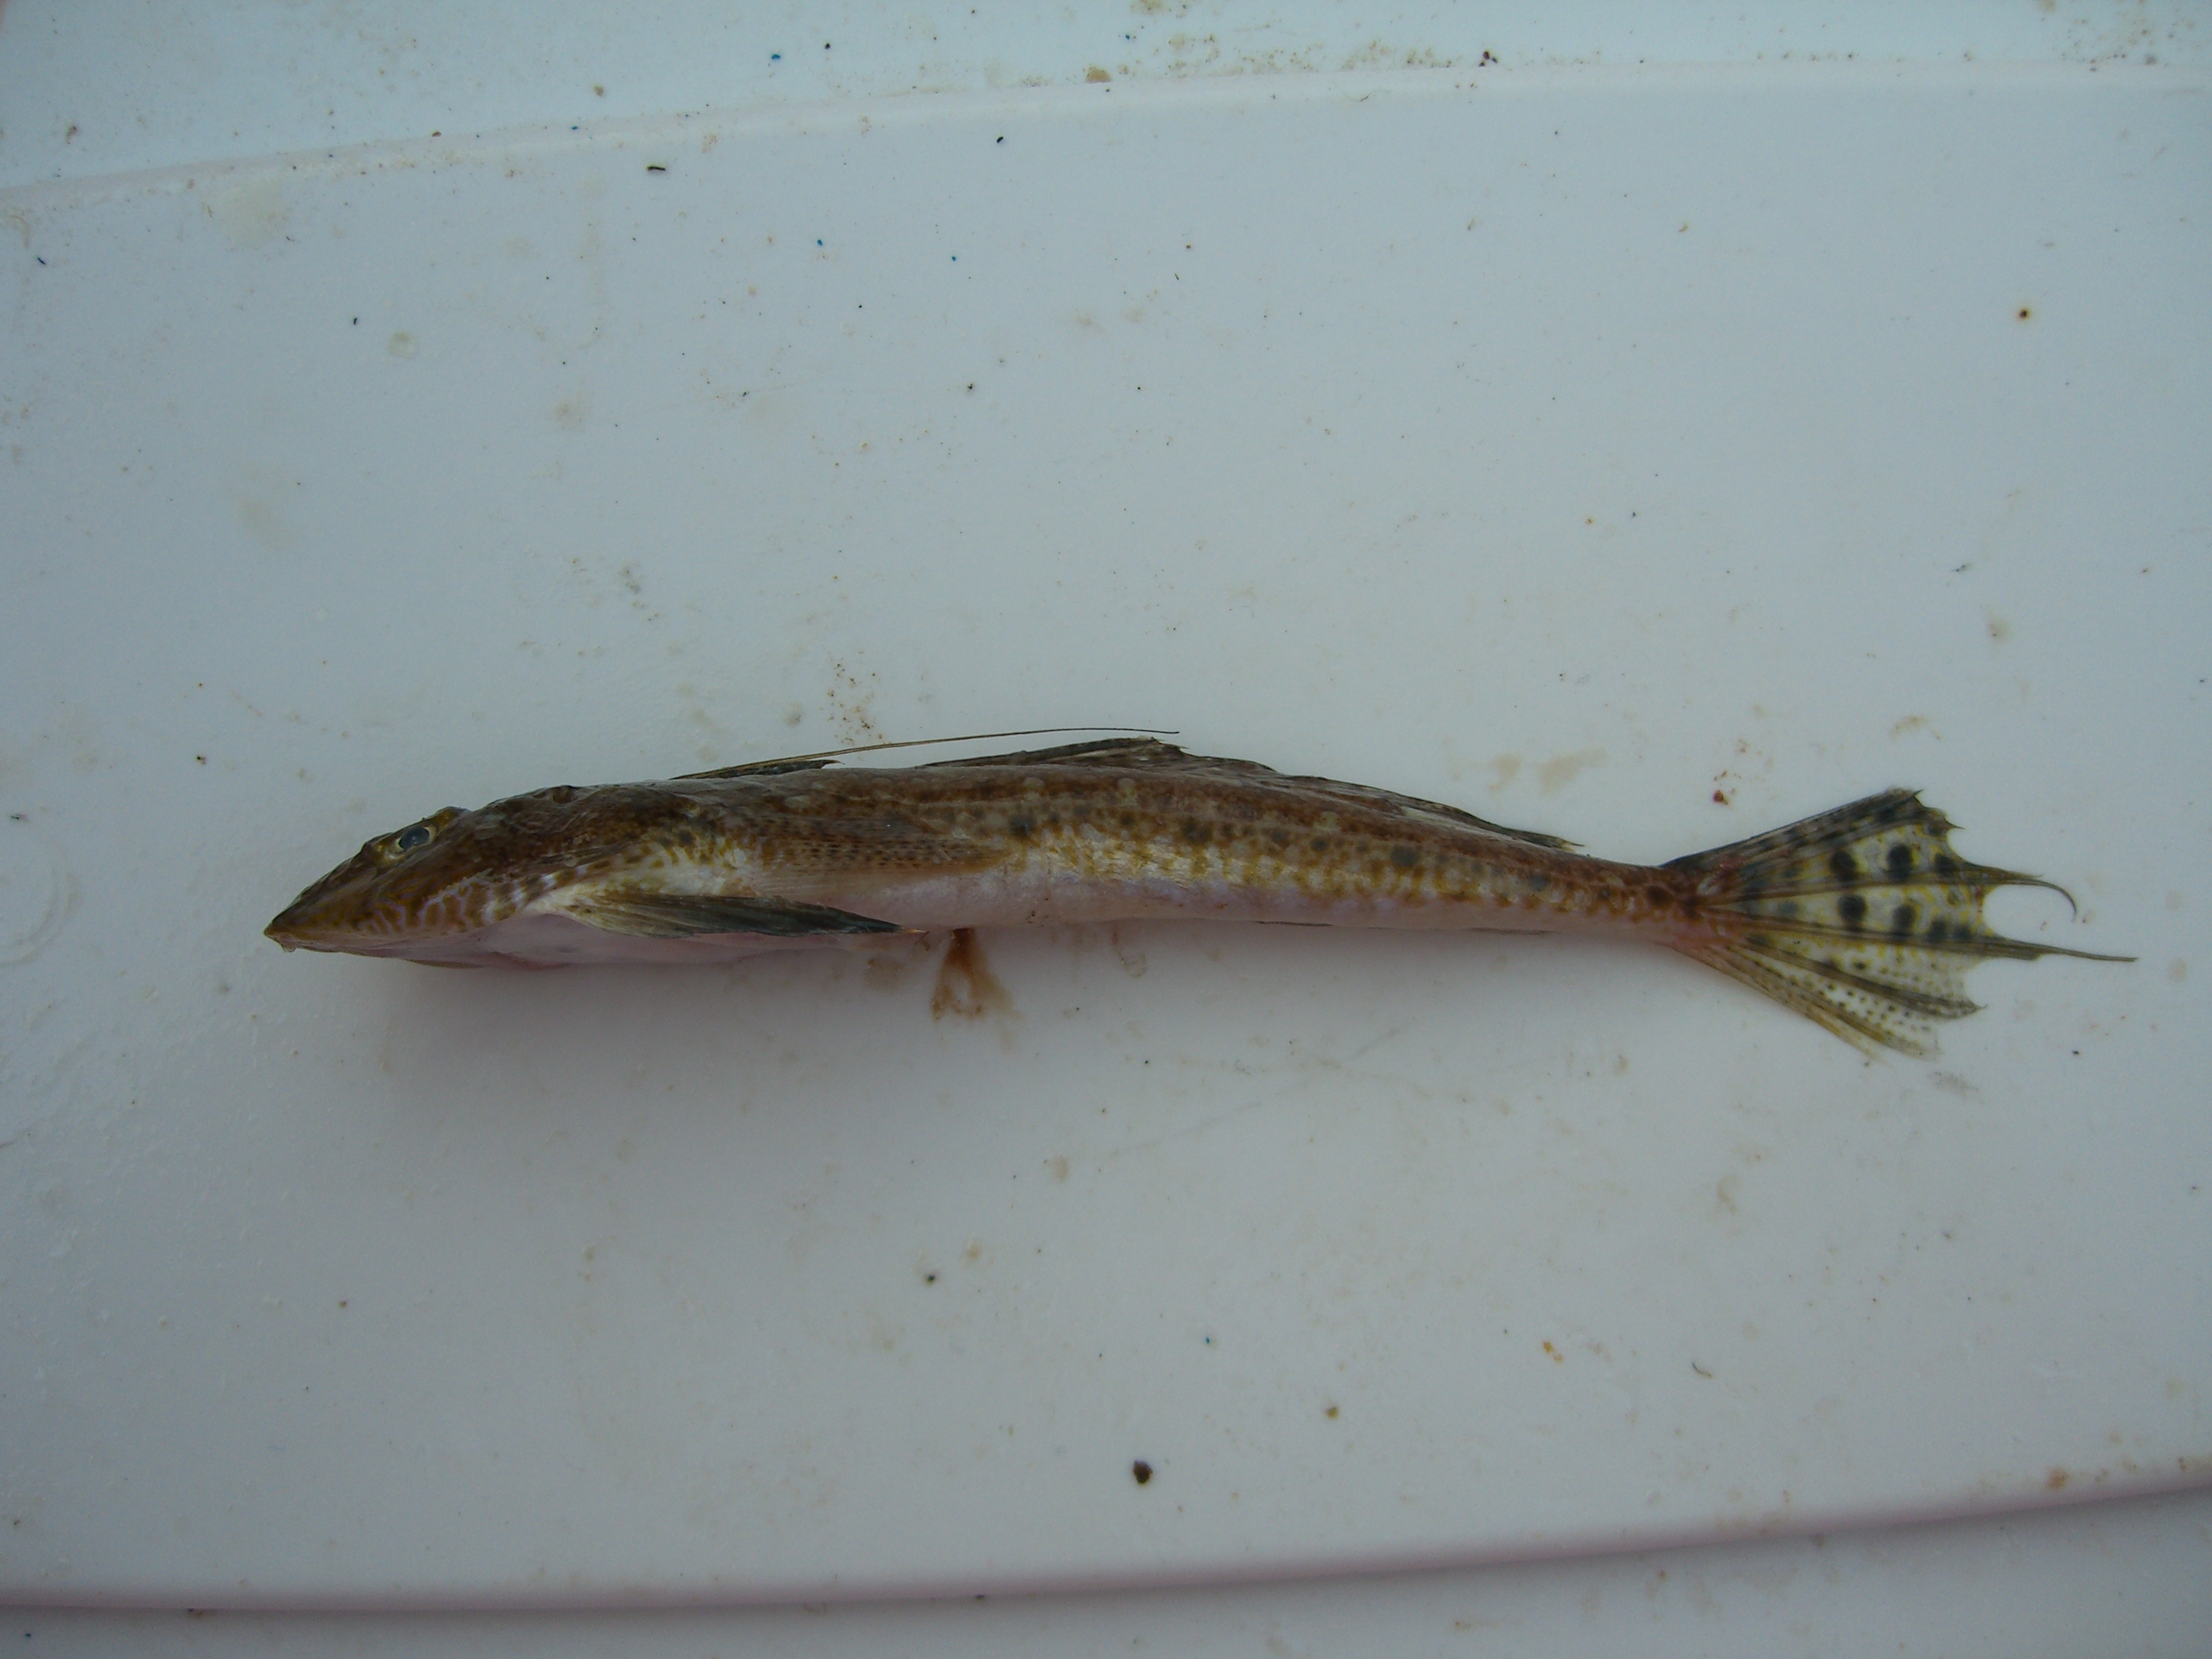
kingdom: Animalia
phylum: Chordata
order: Perciformes
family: Callionymidae
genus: Callionymus
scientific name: Callionymus filamentosus
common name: Blotchfin dragonet
